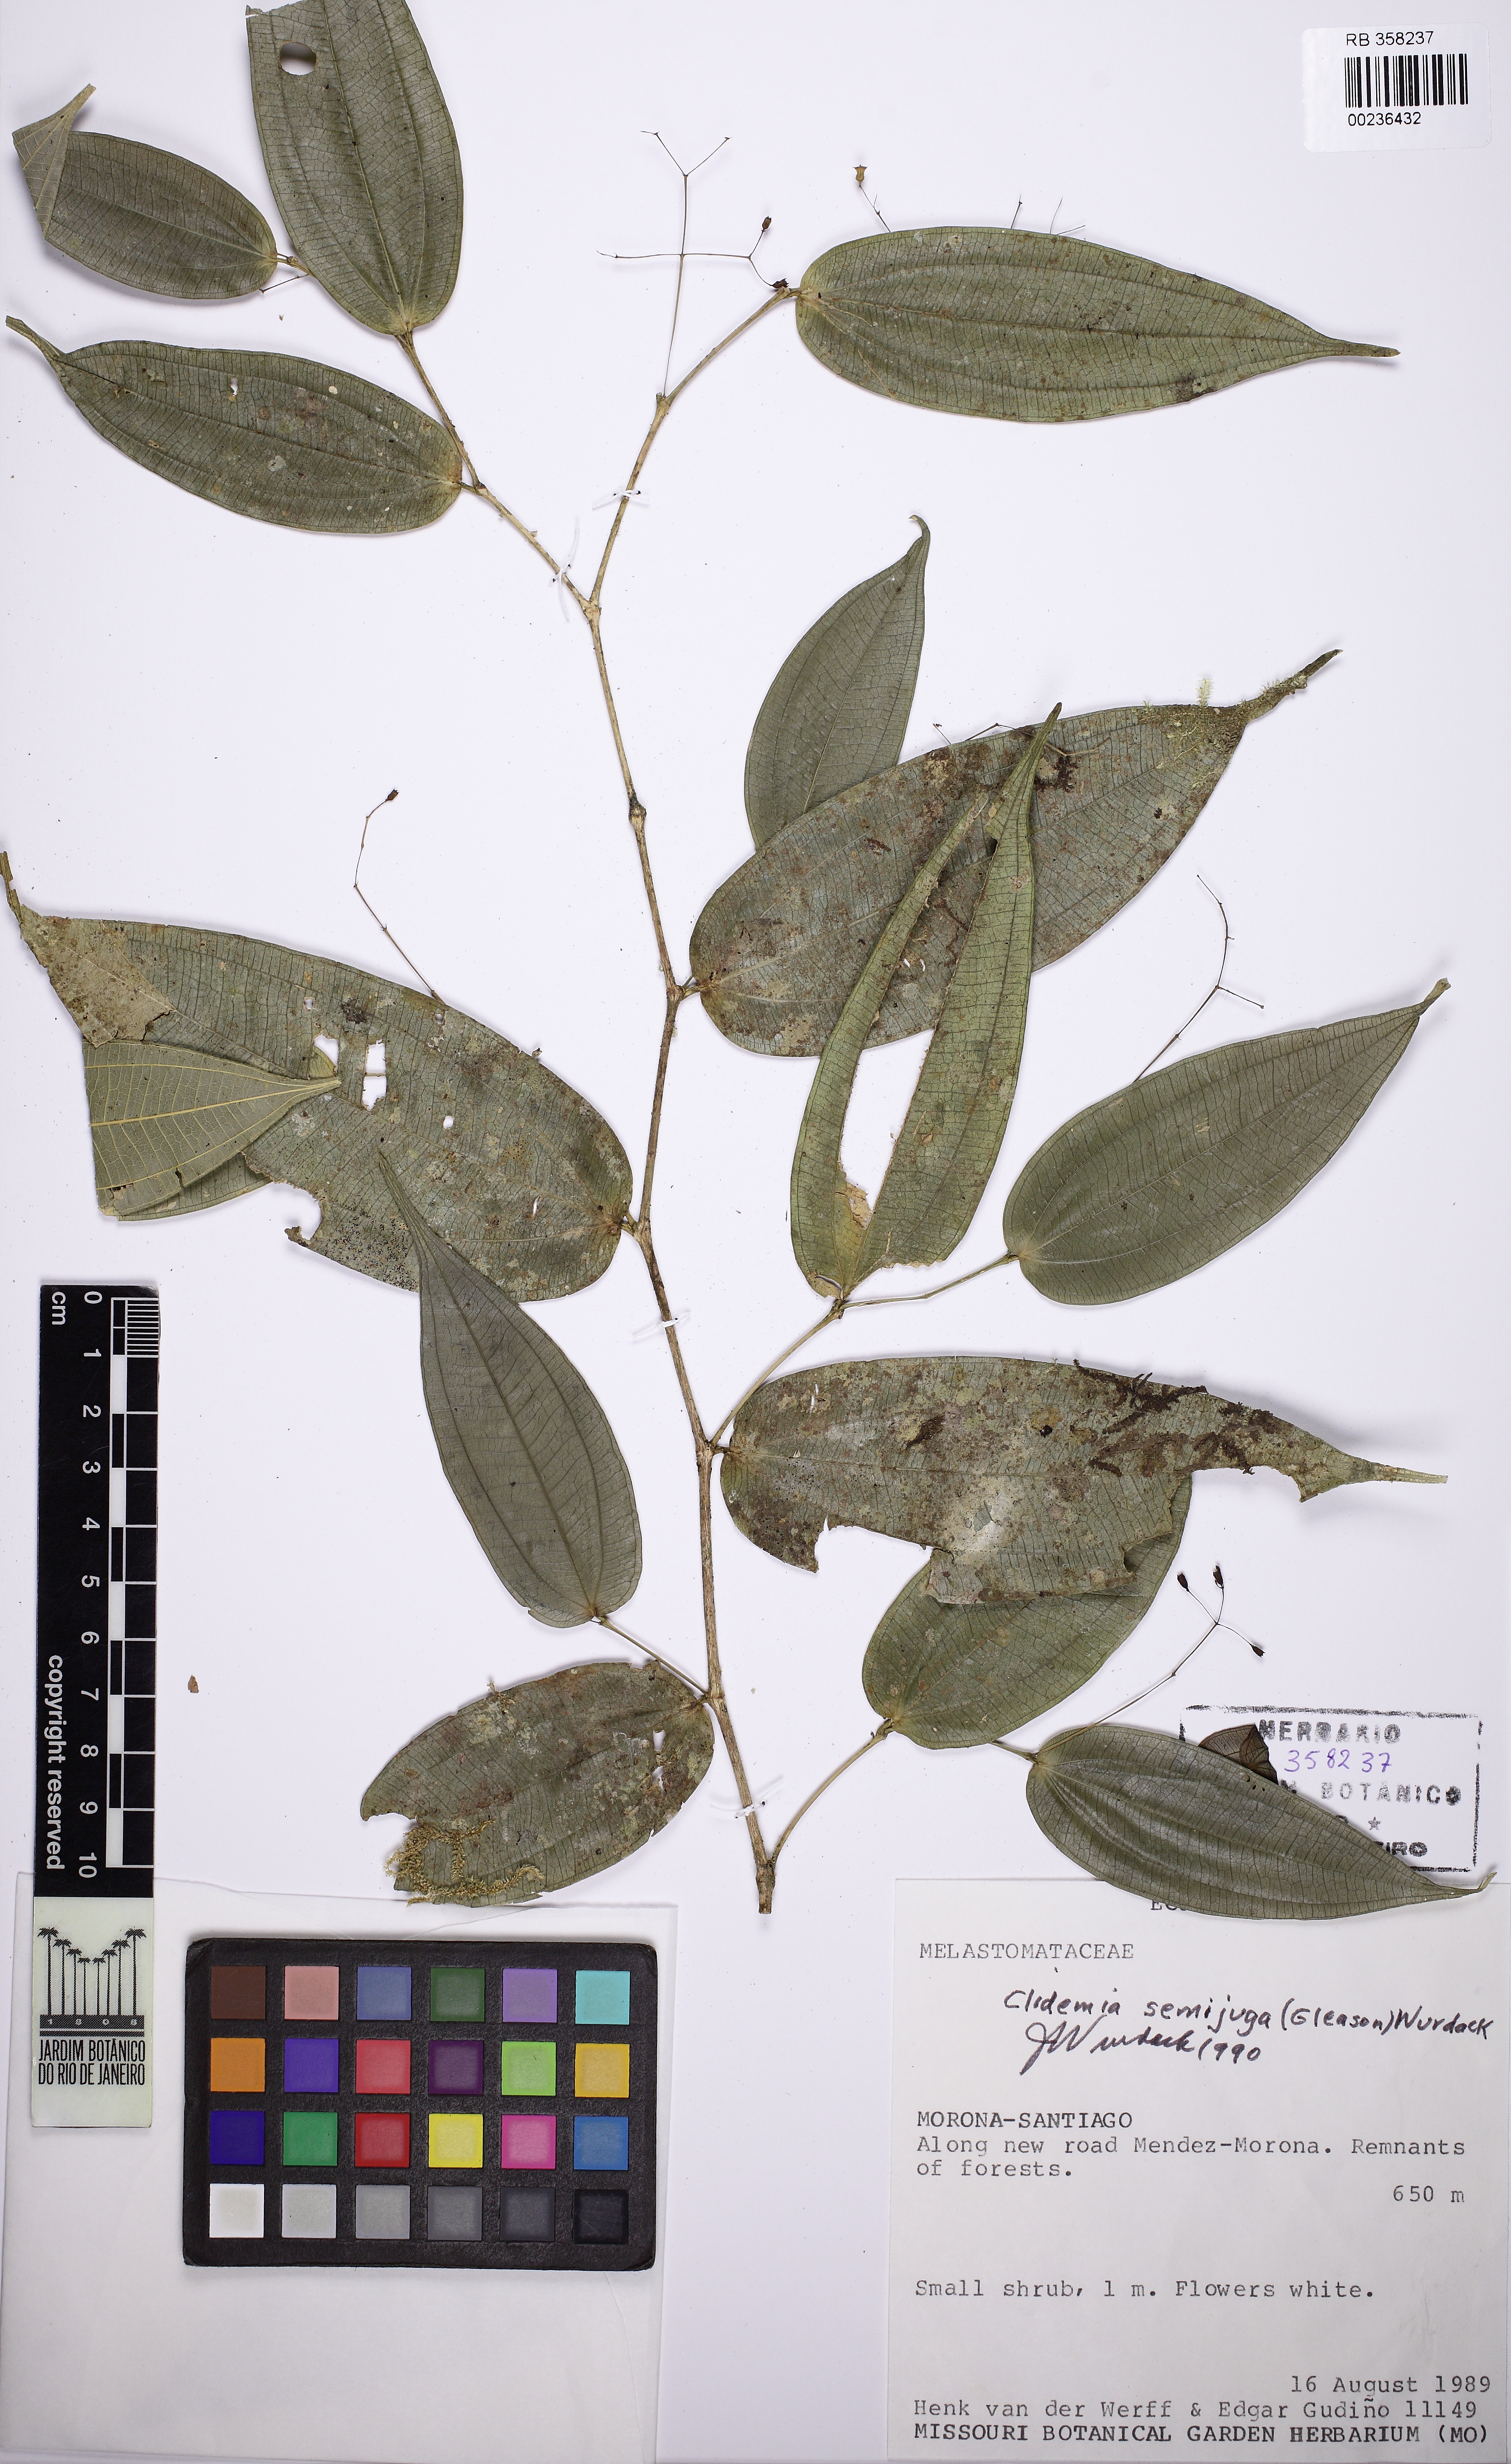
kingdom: Plantae
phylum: Tracheophyta
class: Magnoliopsida
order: Myrtales
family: Melastomataceae
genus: Miconia
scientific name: Miconia semijuga
